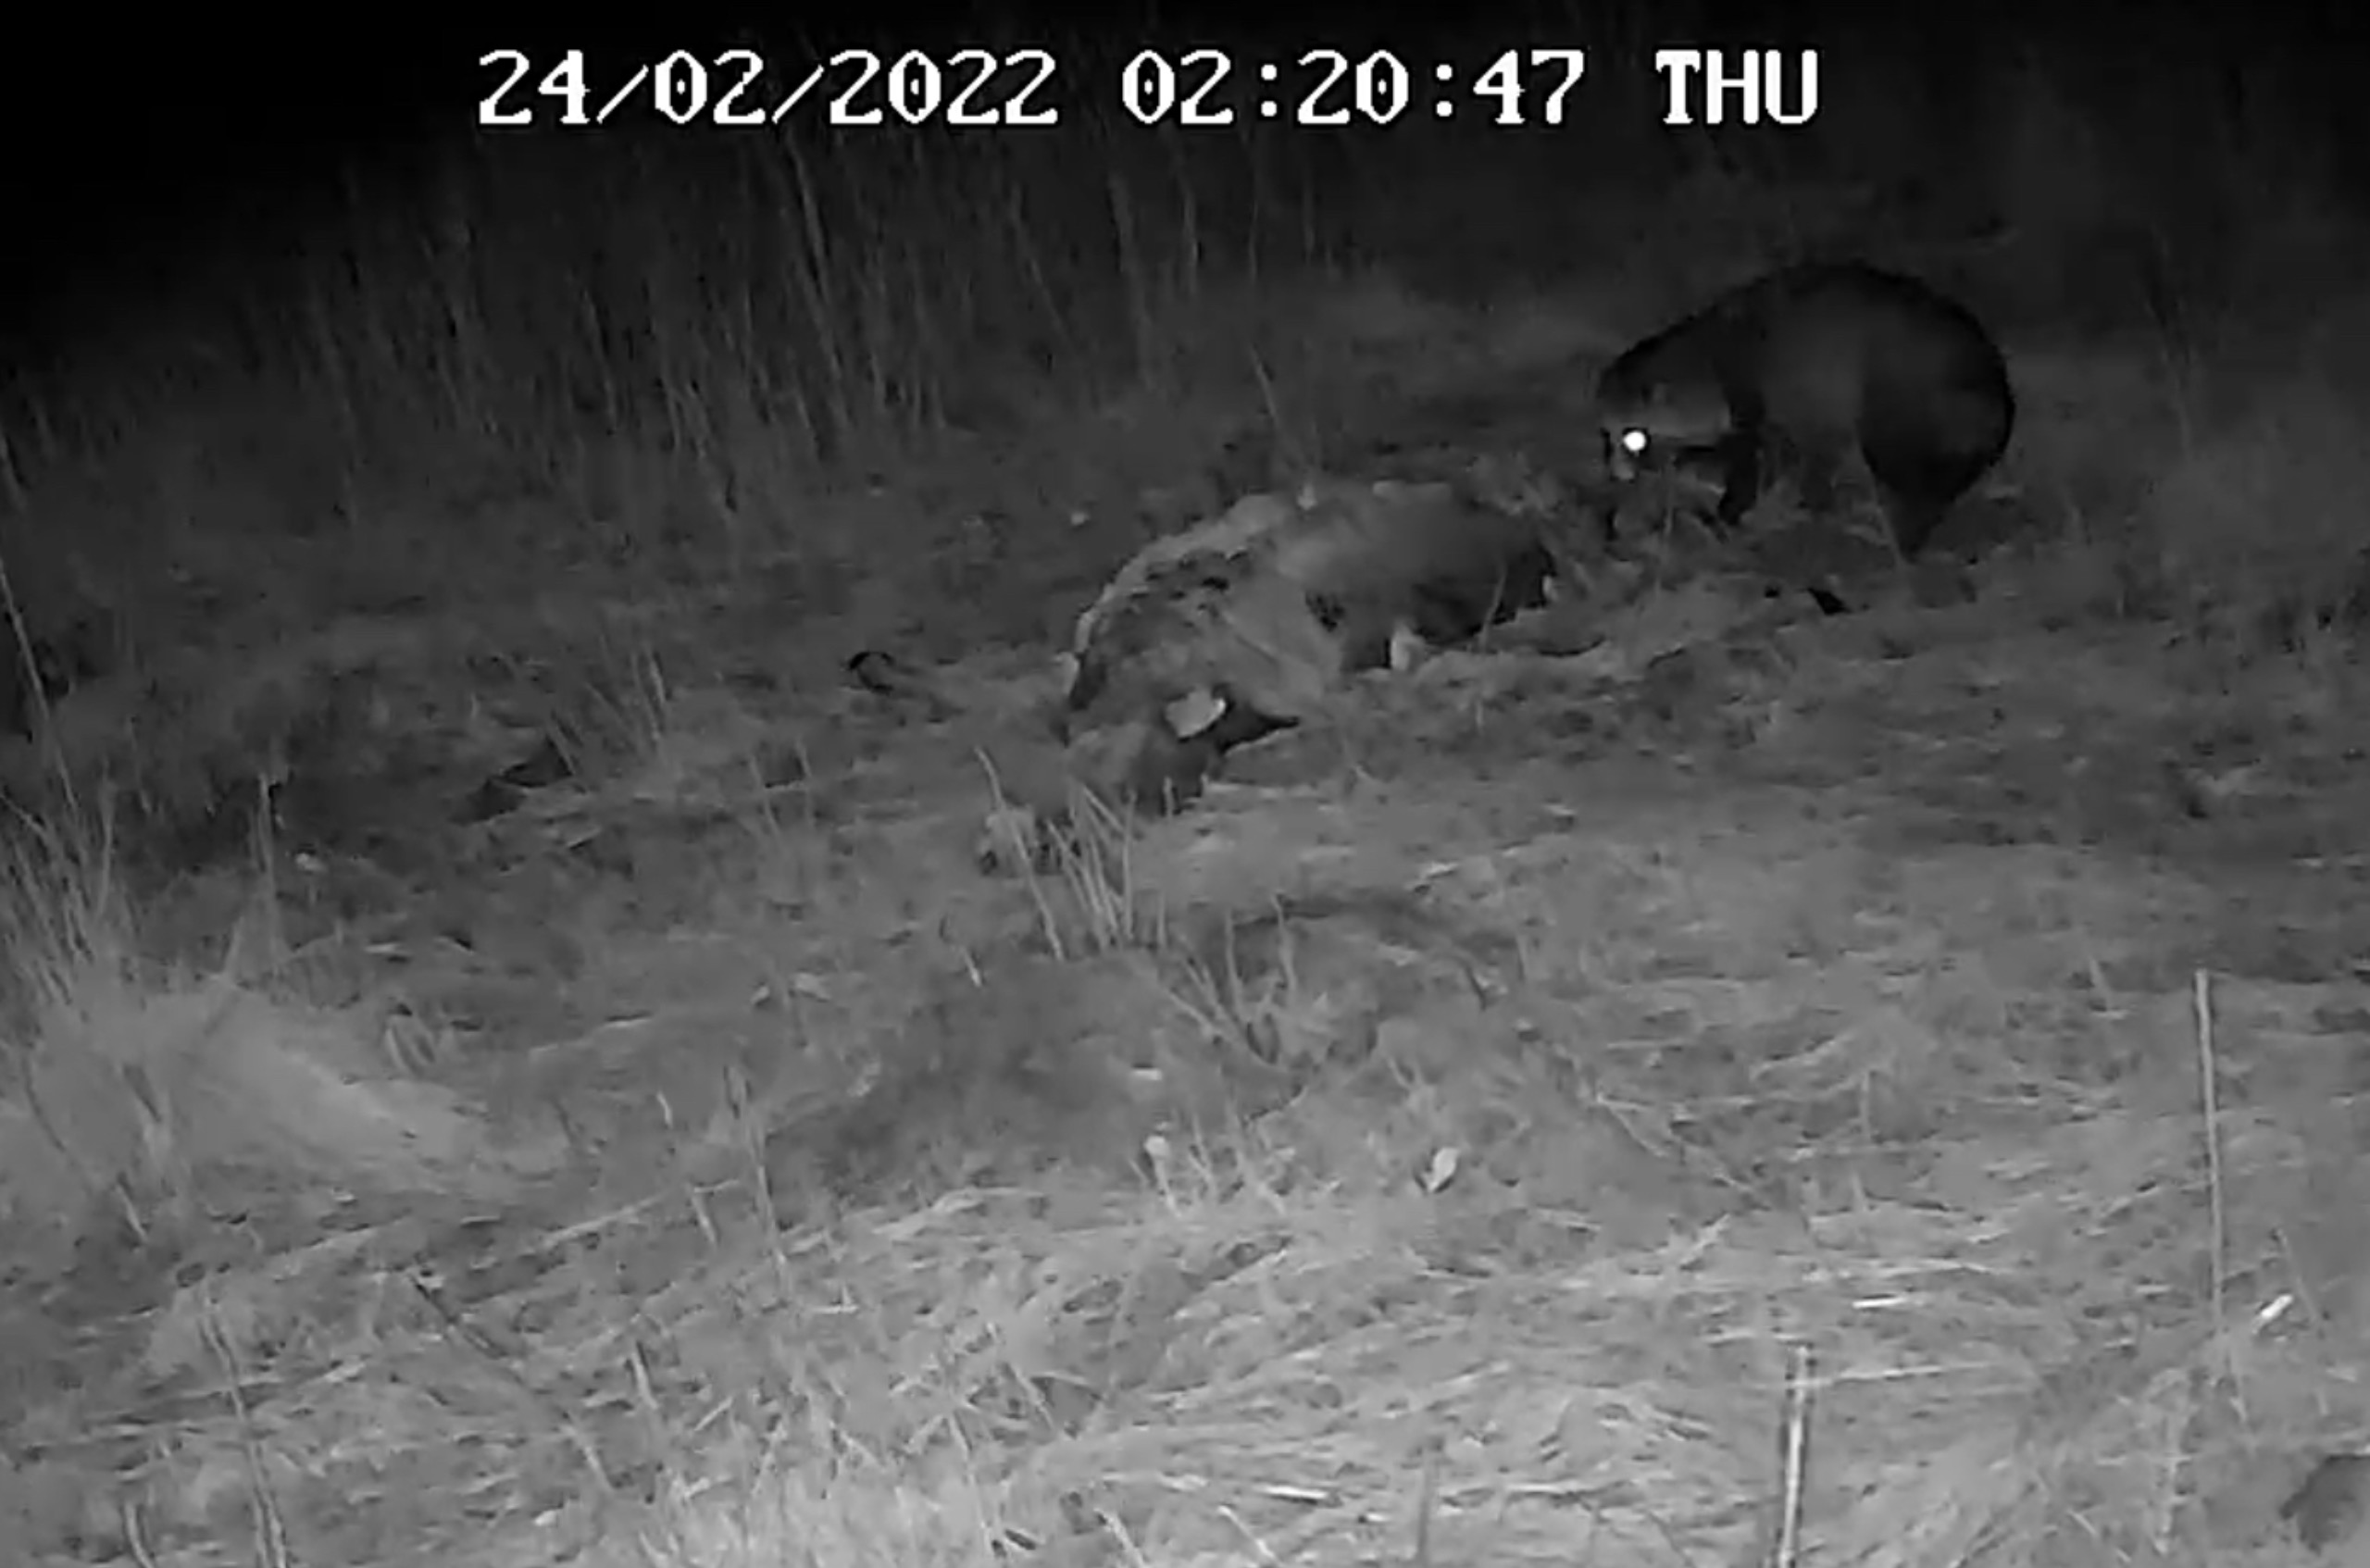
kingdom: Animalia
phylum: Chordata
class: Mammalia
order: Carnivora
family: Canidae
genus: Nyctereutes
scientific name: Nyctereutes procyonoides
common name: Mårhund
